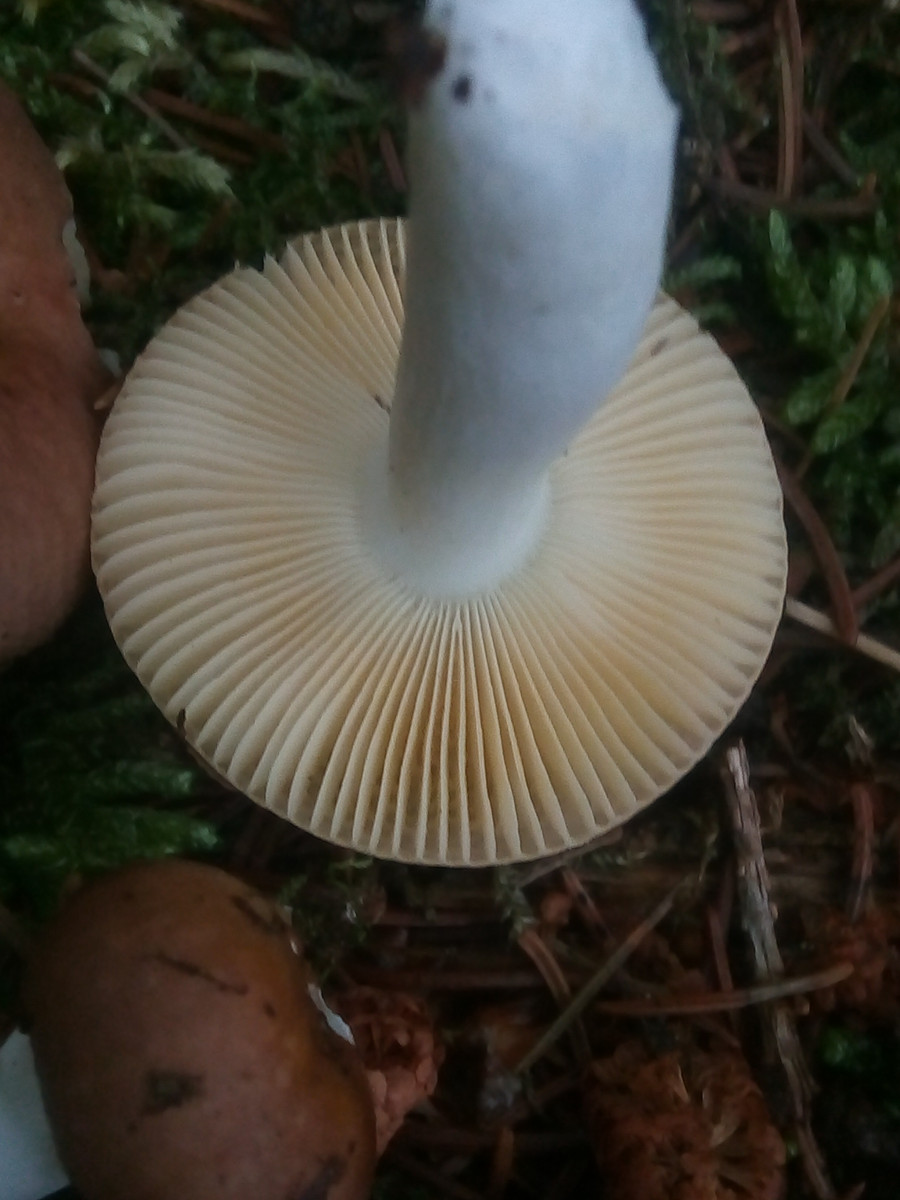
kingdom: Fungi
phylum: Basidiomycota
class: Agaricomycetes
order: Russulales
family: Russulaceae
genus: Russula
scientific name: Russula nauseosa
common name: spinkel skørhat
